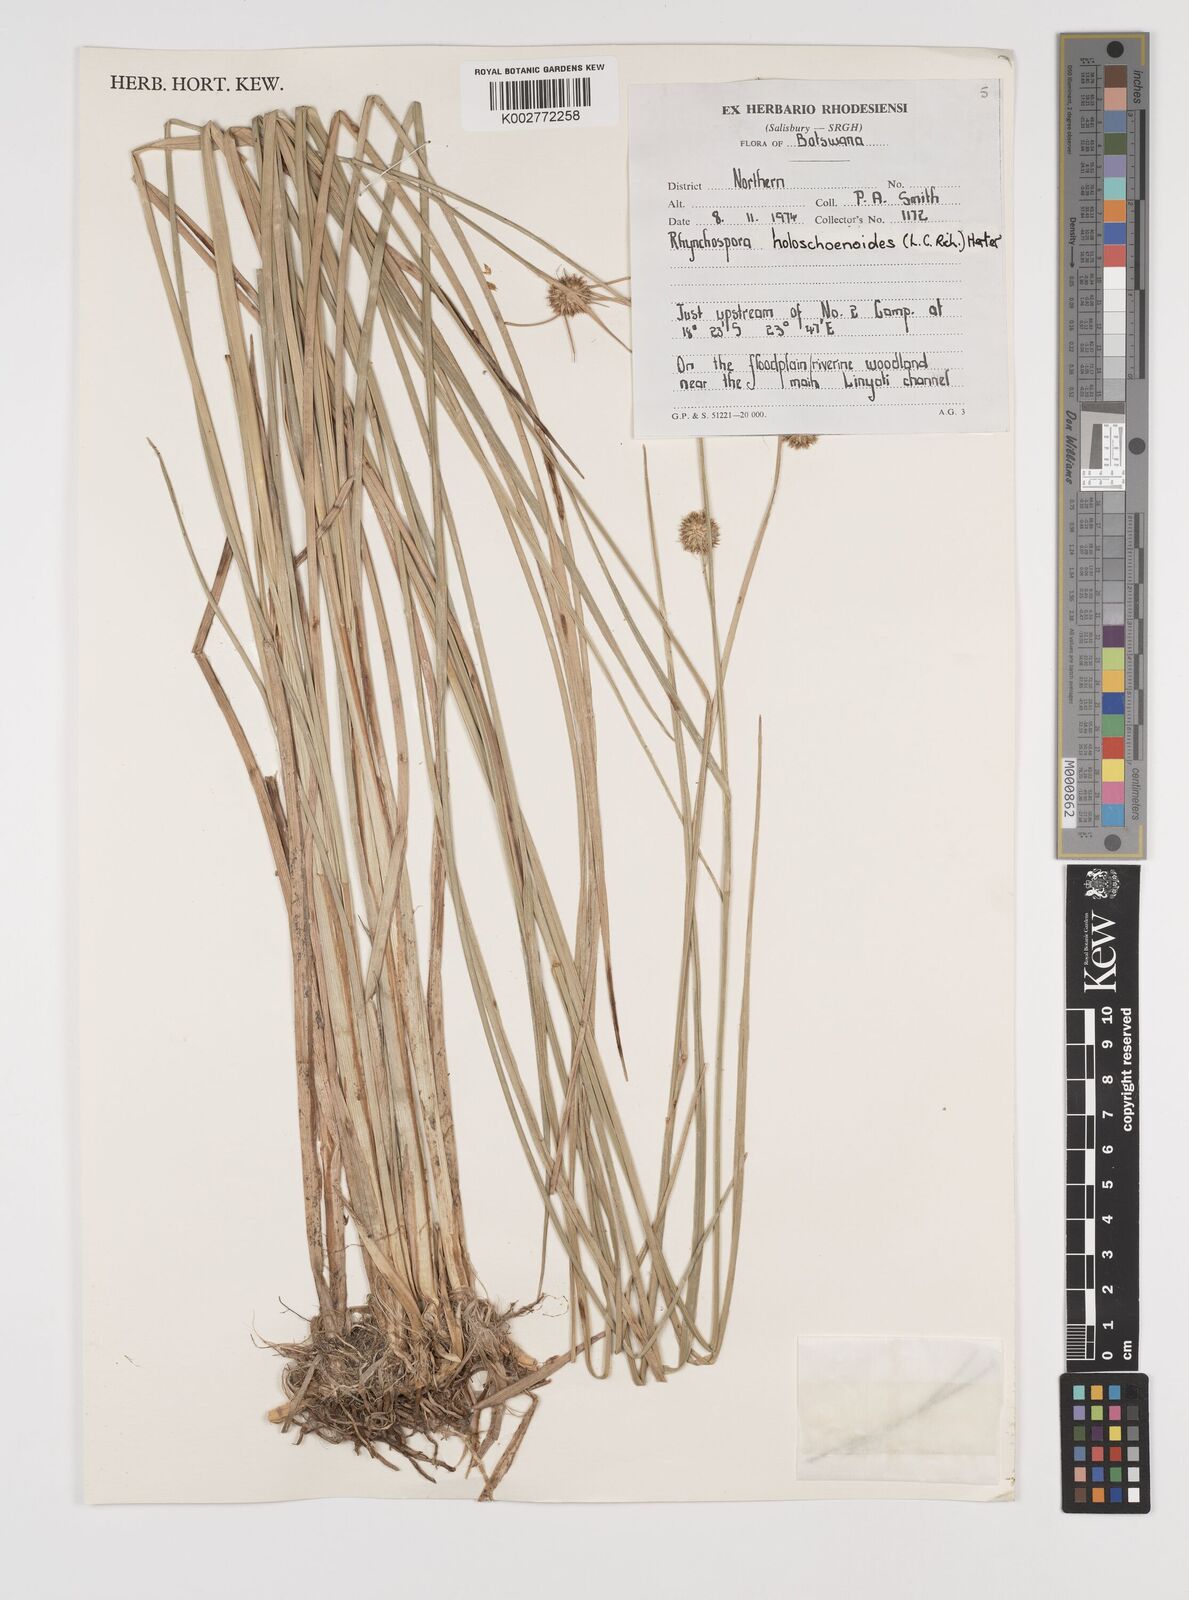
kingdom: Plantae
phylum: Tracheophyta
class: Liliopsida
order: Poales
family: Cyperaceae
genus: Rhynchospora
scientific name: Rhynchospora holoschoenoides
